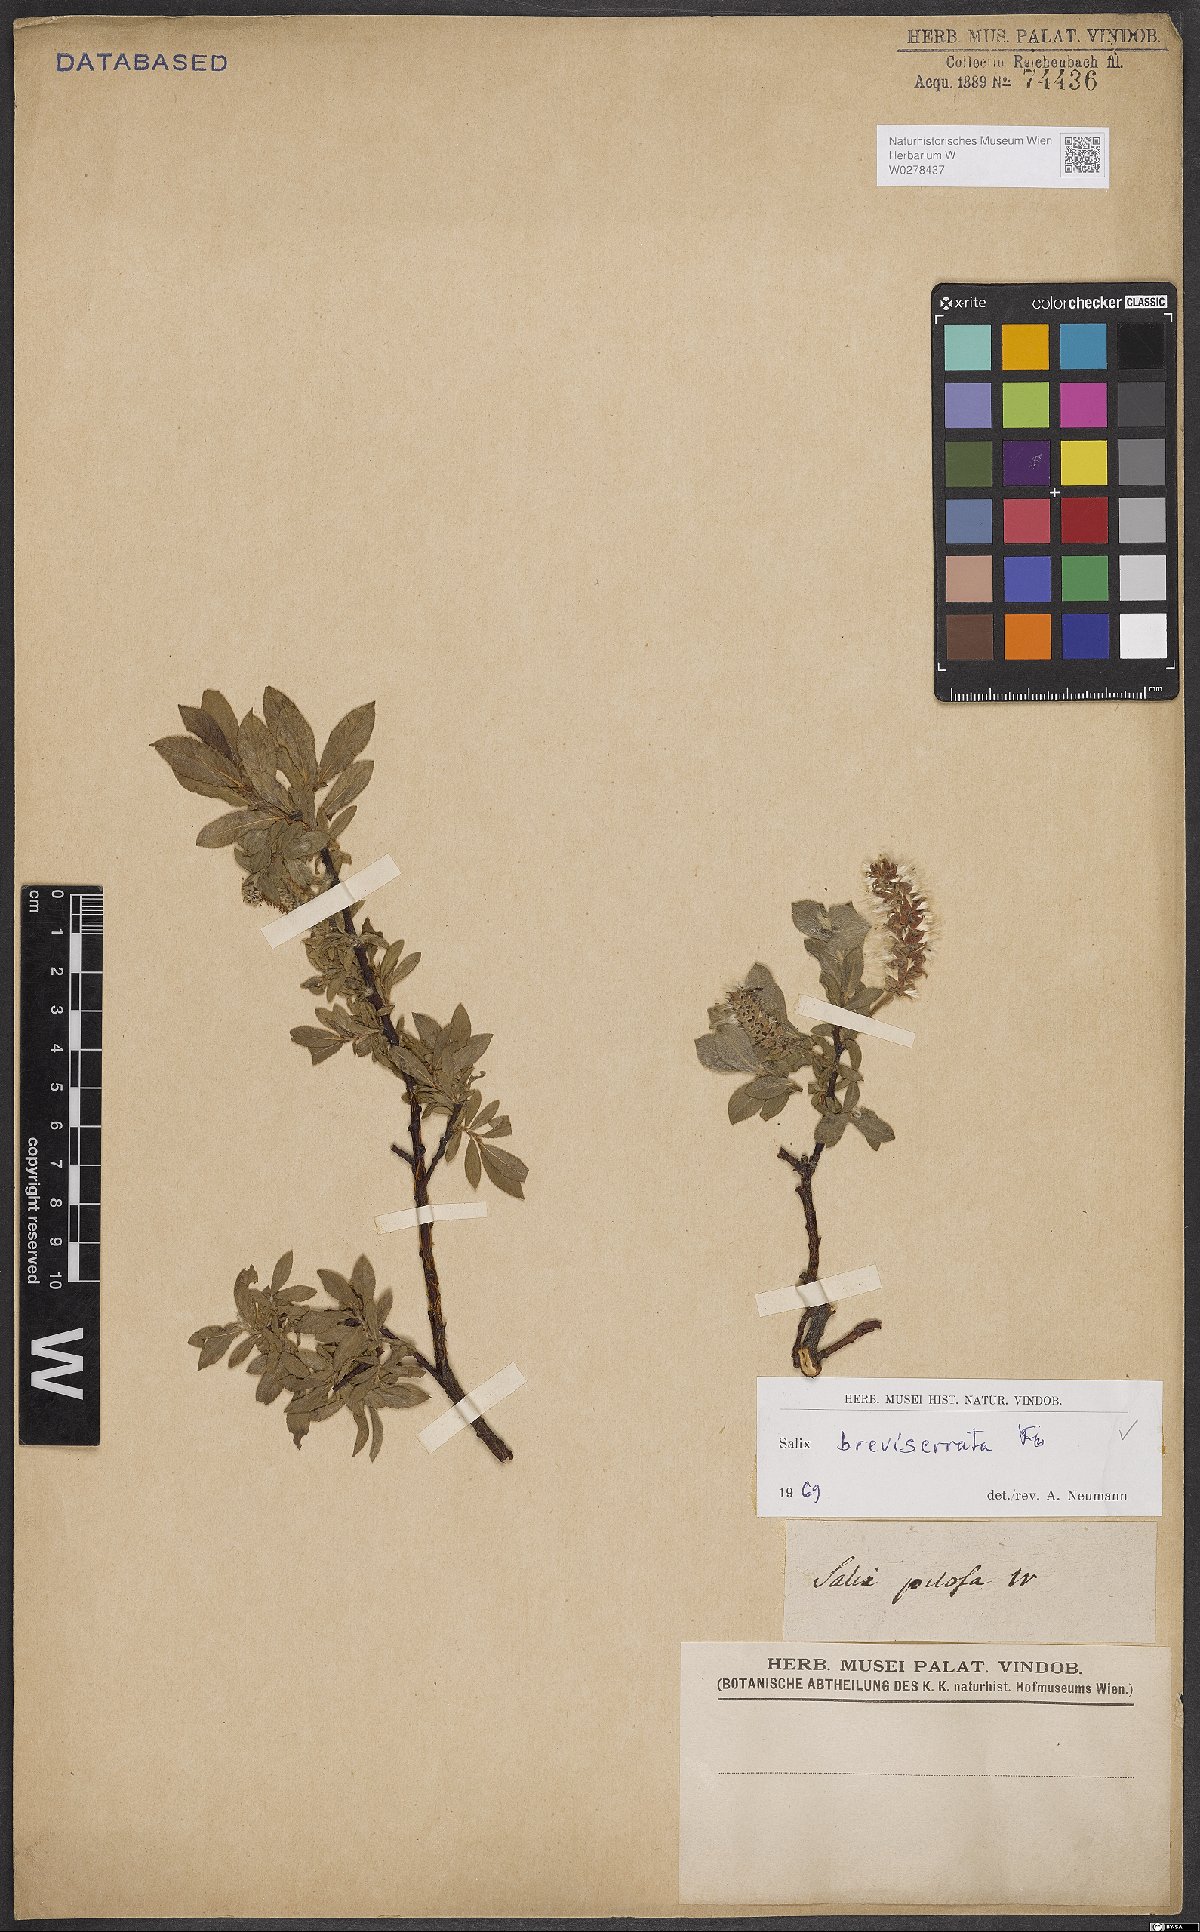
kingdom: Plantae
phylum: Tracheophyta
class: Magnoliopsida
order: Malpighiales
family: Salicaceae
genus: Salix
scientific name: Salix breviserrata
